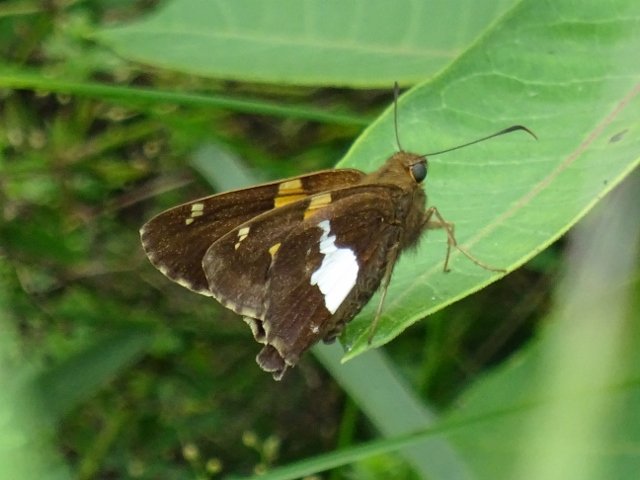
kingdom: Animalia
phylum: Arthropoda
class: Insecta
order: Lepidoptera
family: Hesperiidae
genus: Epargyreus
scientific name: Epargyreus clarus
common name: Silver-spotted Skipper
